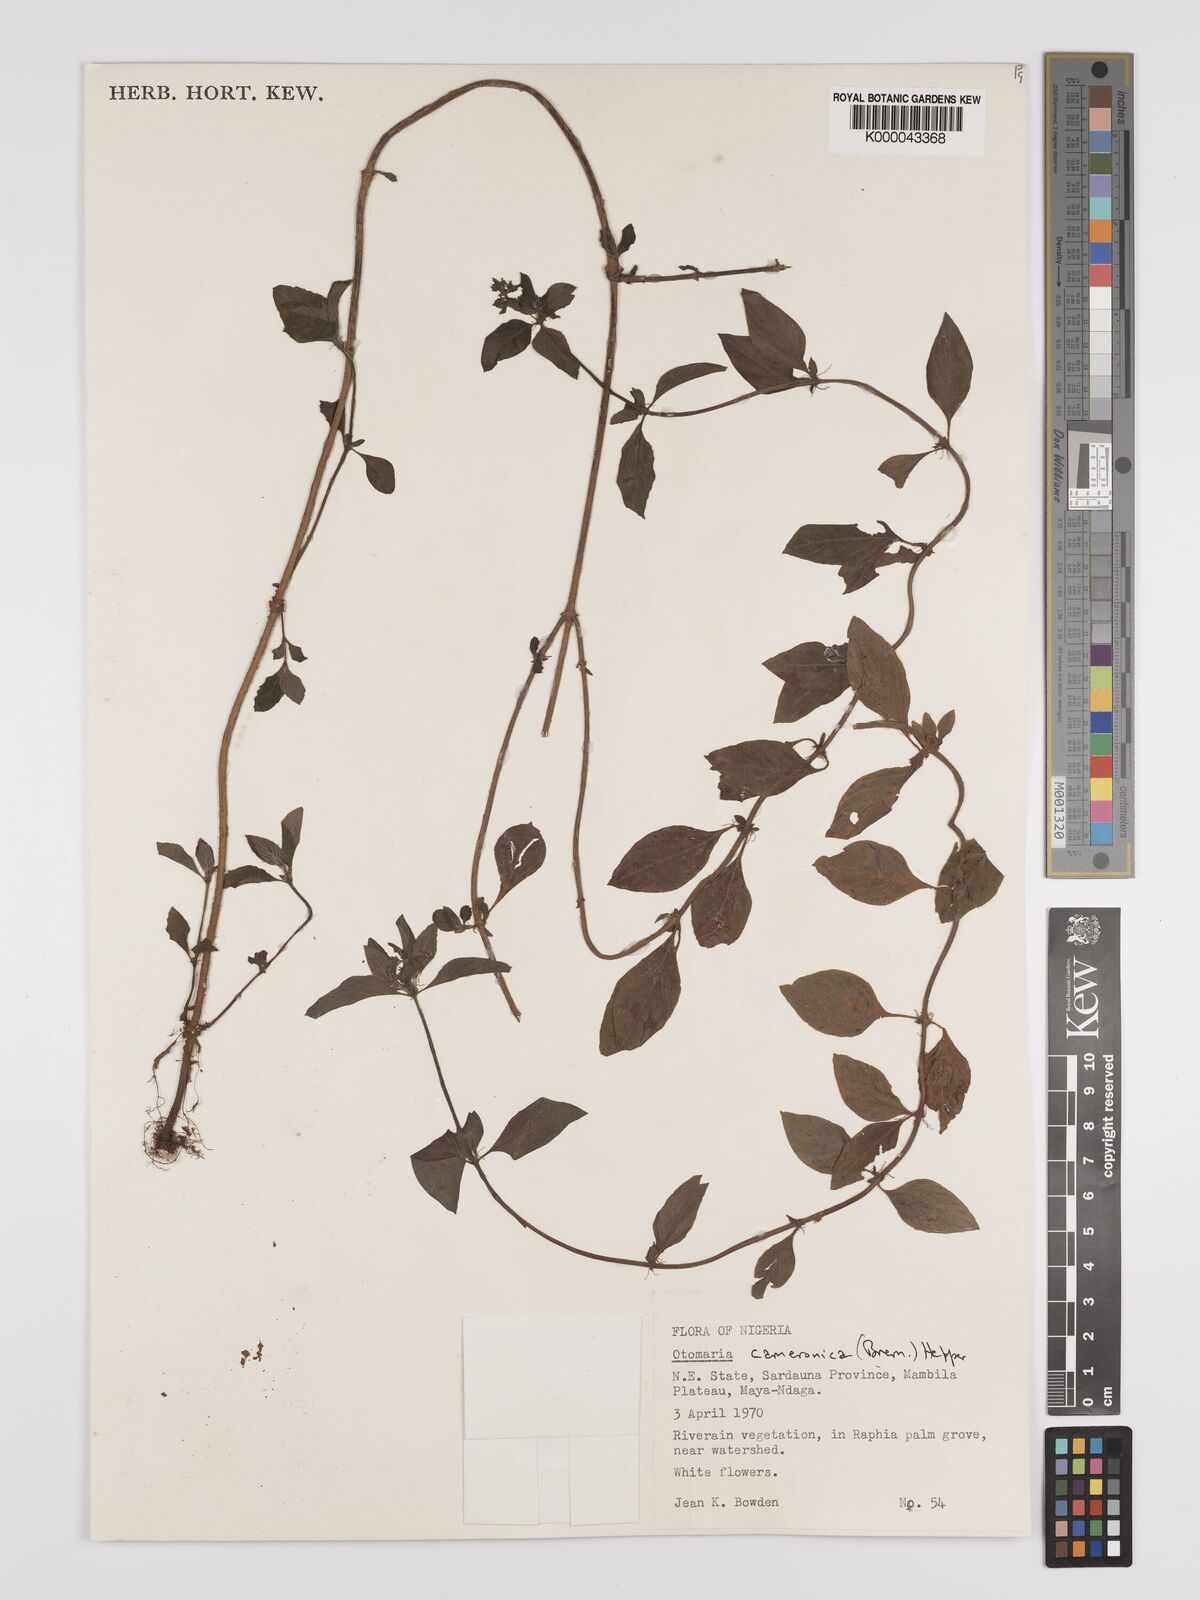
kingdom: Plantae
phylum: Tracheophyta
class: Magnoliopsida
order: Gentianales
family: Rubiaceae
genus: Otomeria
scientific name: Otomeria cameronica
